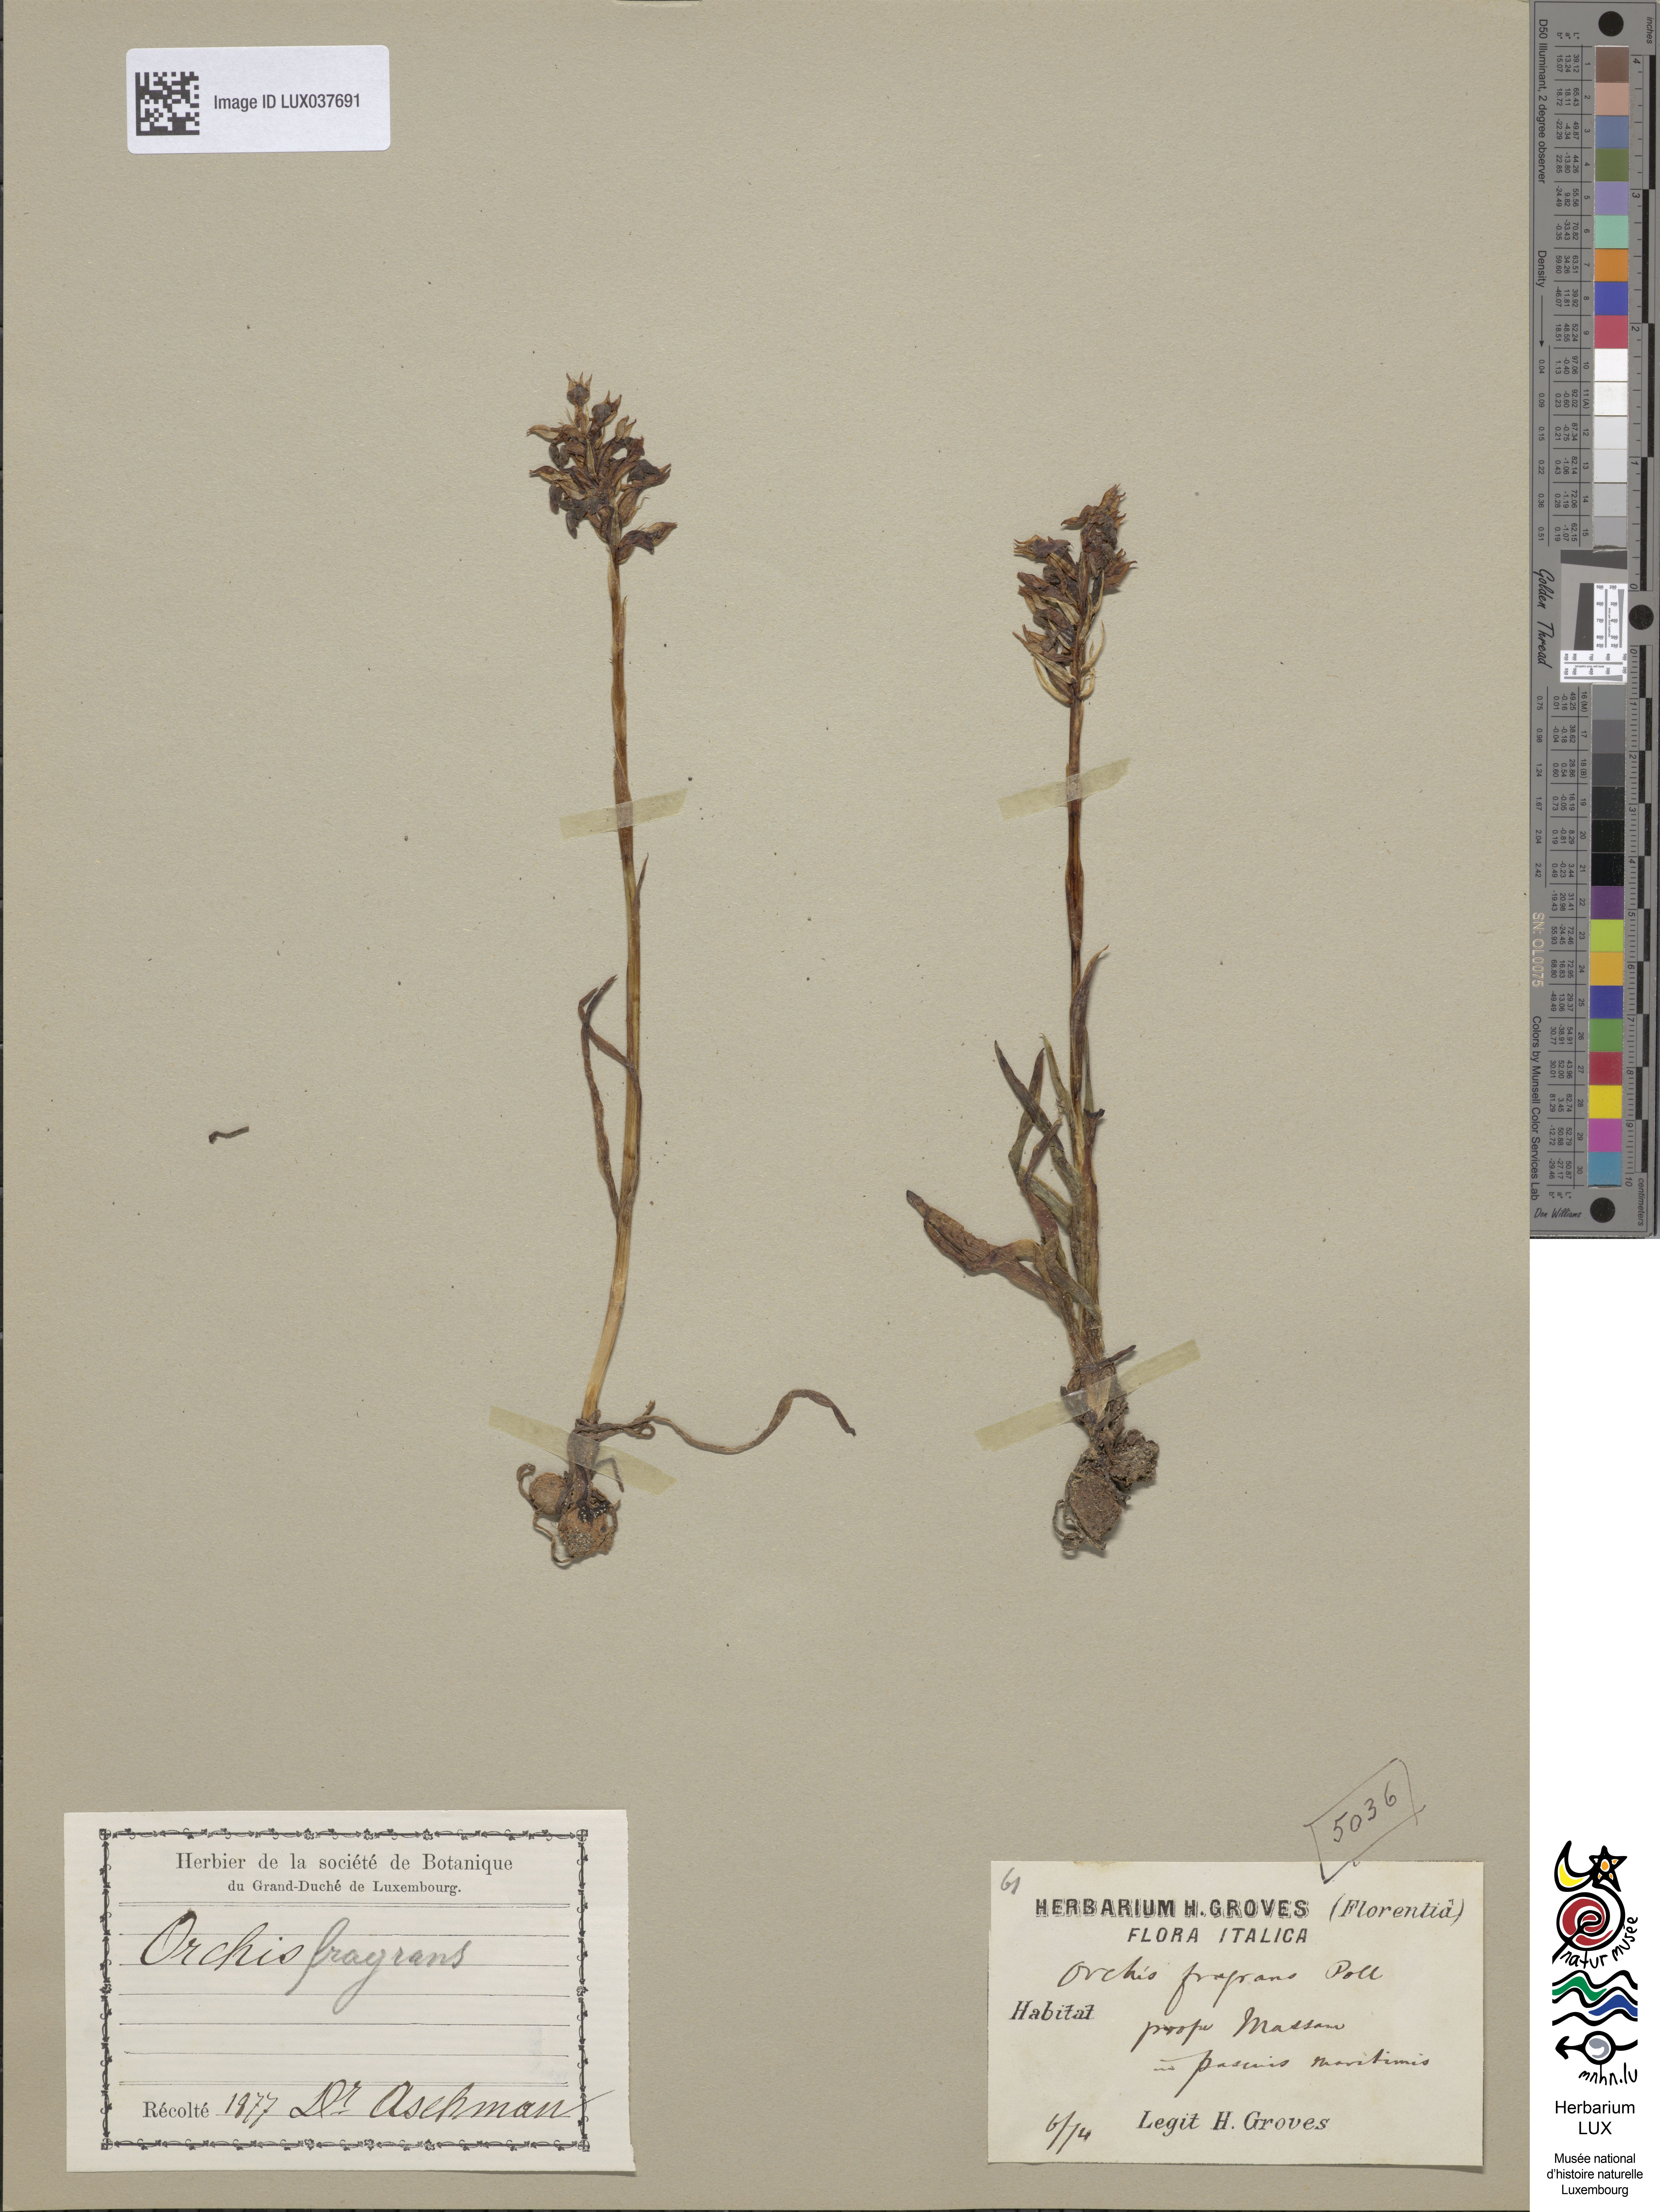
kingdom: Plantae
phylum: Tracheophyta
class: Liliopsida
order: Asparagales
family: Orchidaceae
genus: Anacamptis
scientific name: Anacamptis coriophora
